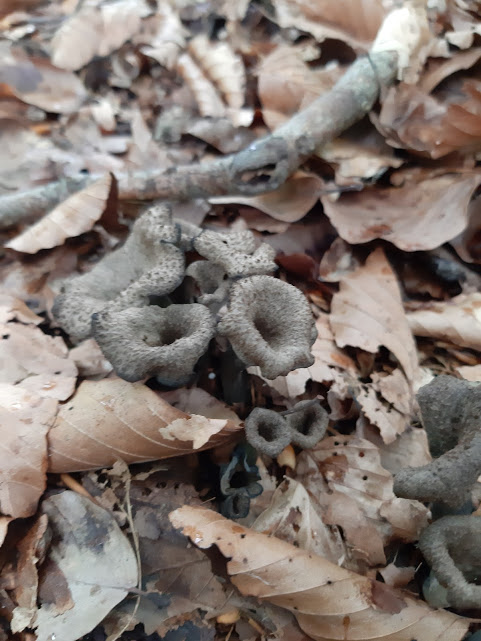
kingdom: Fungi
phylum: Basidiomycota
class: Agaricomycetes
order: Cantharellales
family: Hydnaceae
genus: Craterellus
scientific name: Craterellus cornucopioides
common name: trompetsvamp
